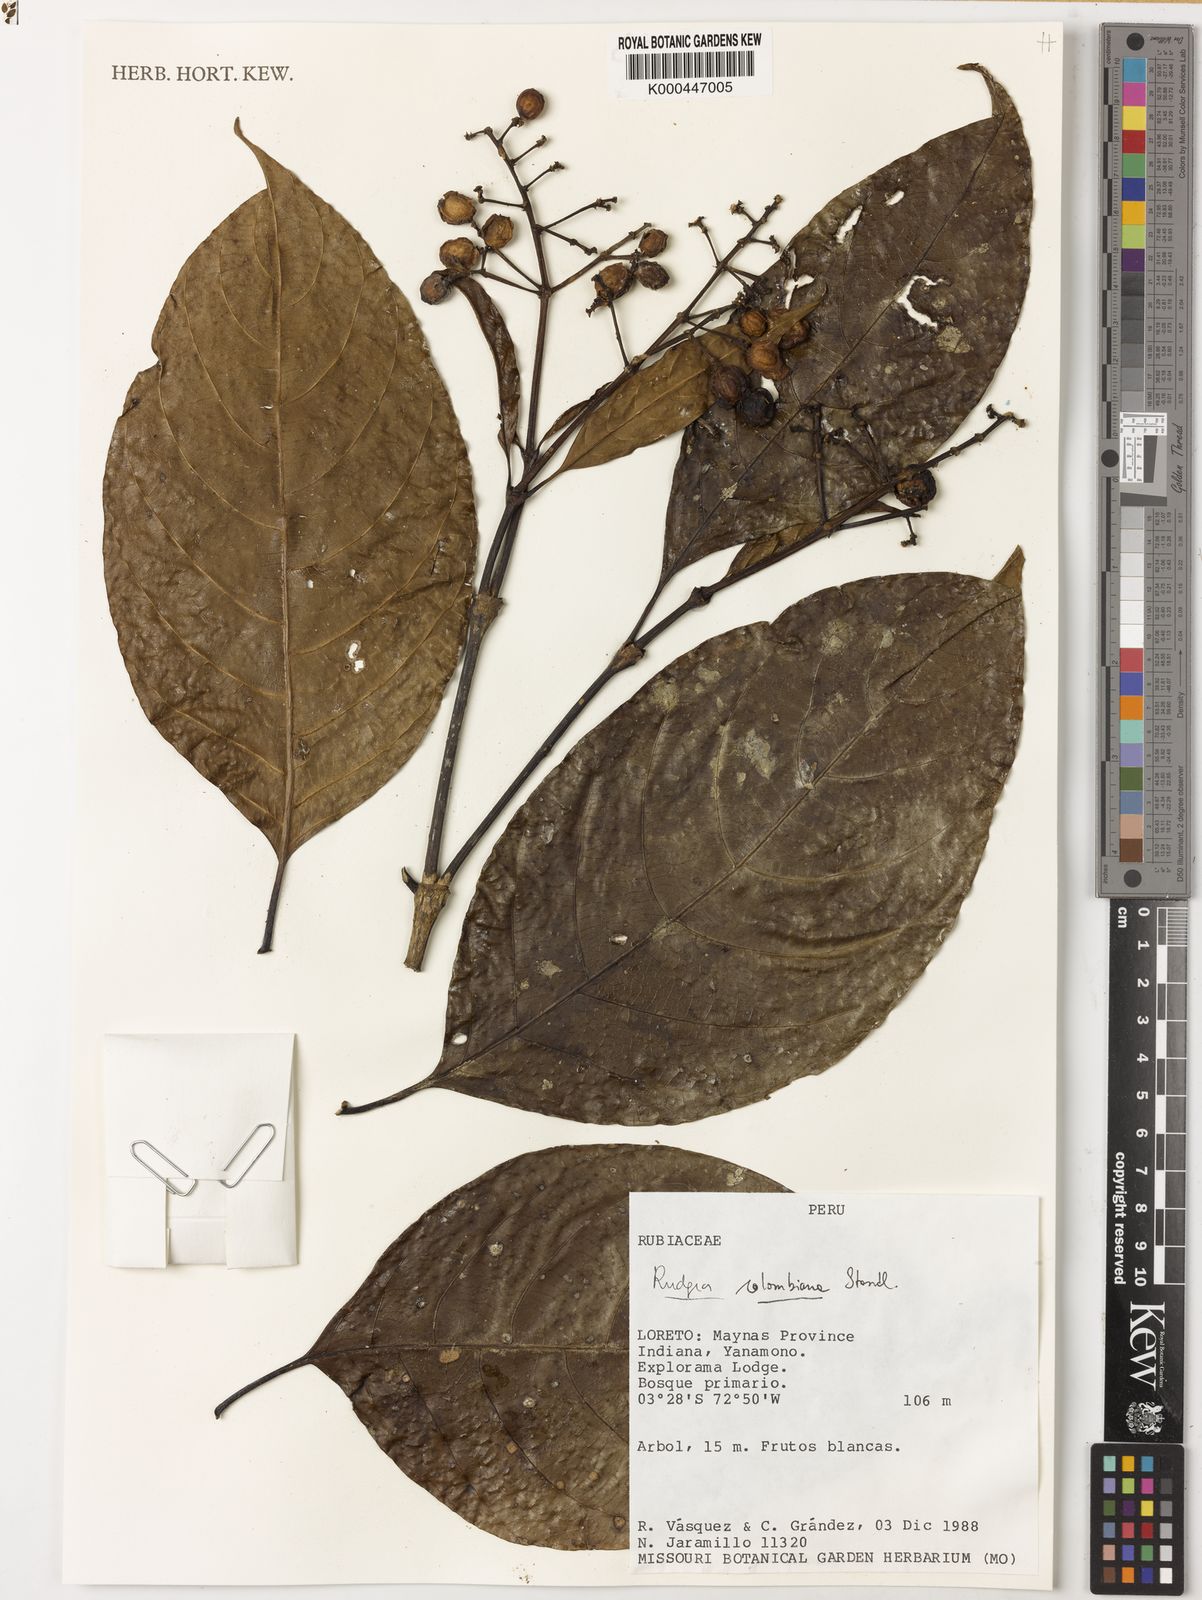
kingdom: Plantae
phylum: Tracheophyta
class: Magnoliopsida
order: Gentianales
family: Rubiaceae
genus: Rudgea
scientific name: Rudgea colombiana
